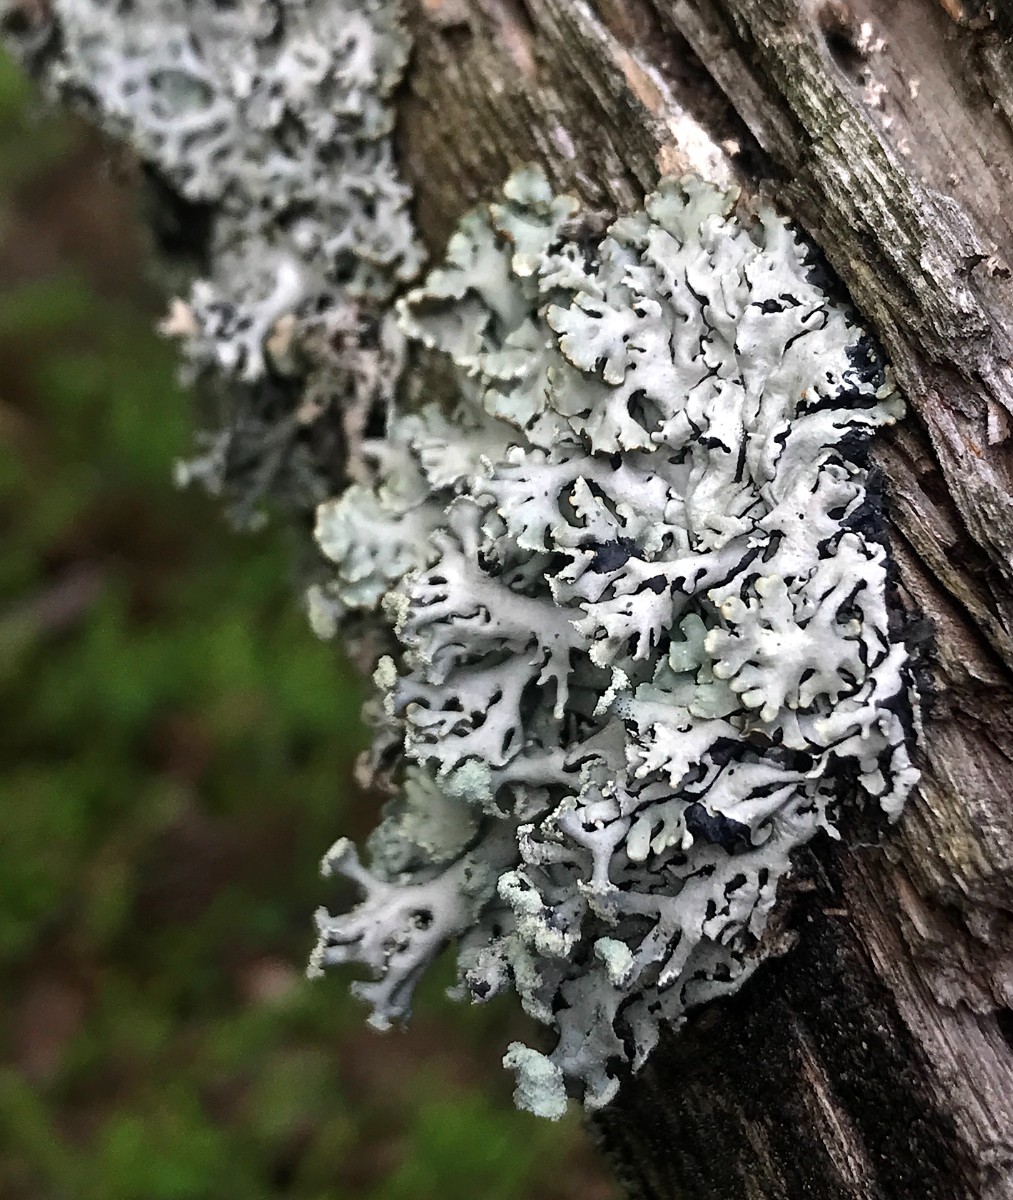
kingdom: Fungi
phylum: Ascomycota
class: Lecanoromycetes
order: Lecanorales
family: Parmeliaceae
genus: Hypogymnia
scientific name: Hypogymnia physodes
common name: almindelig kvistlav
